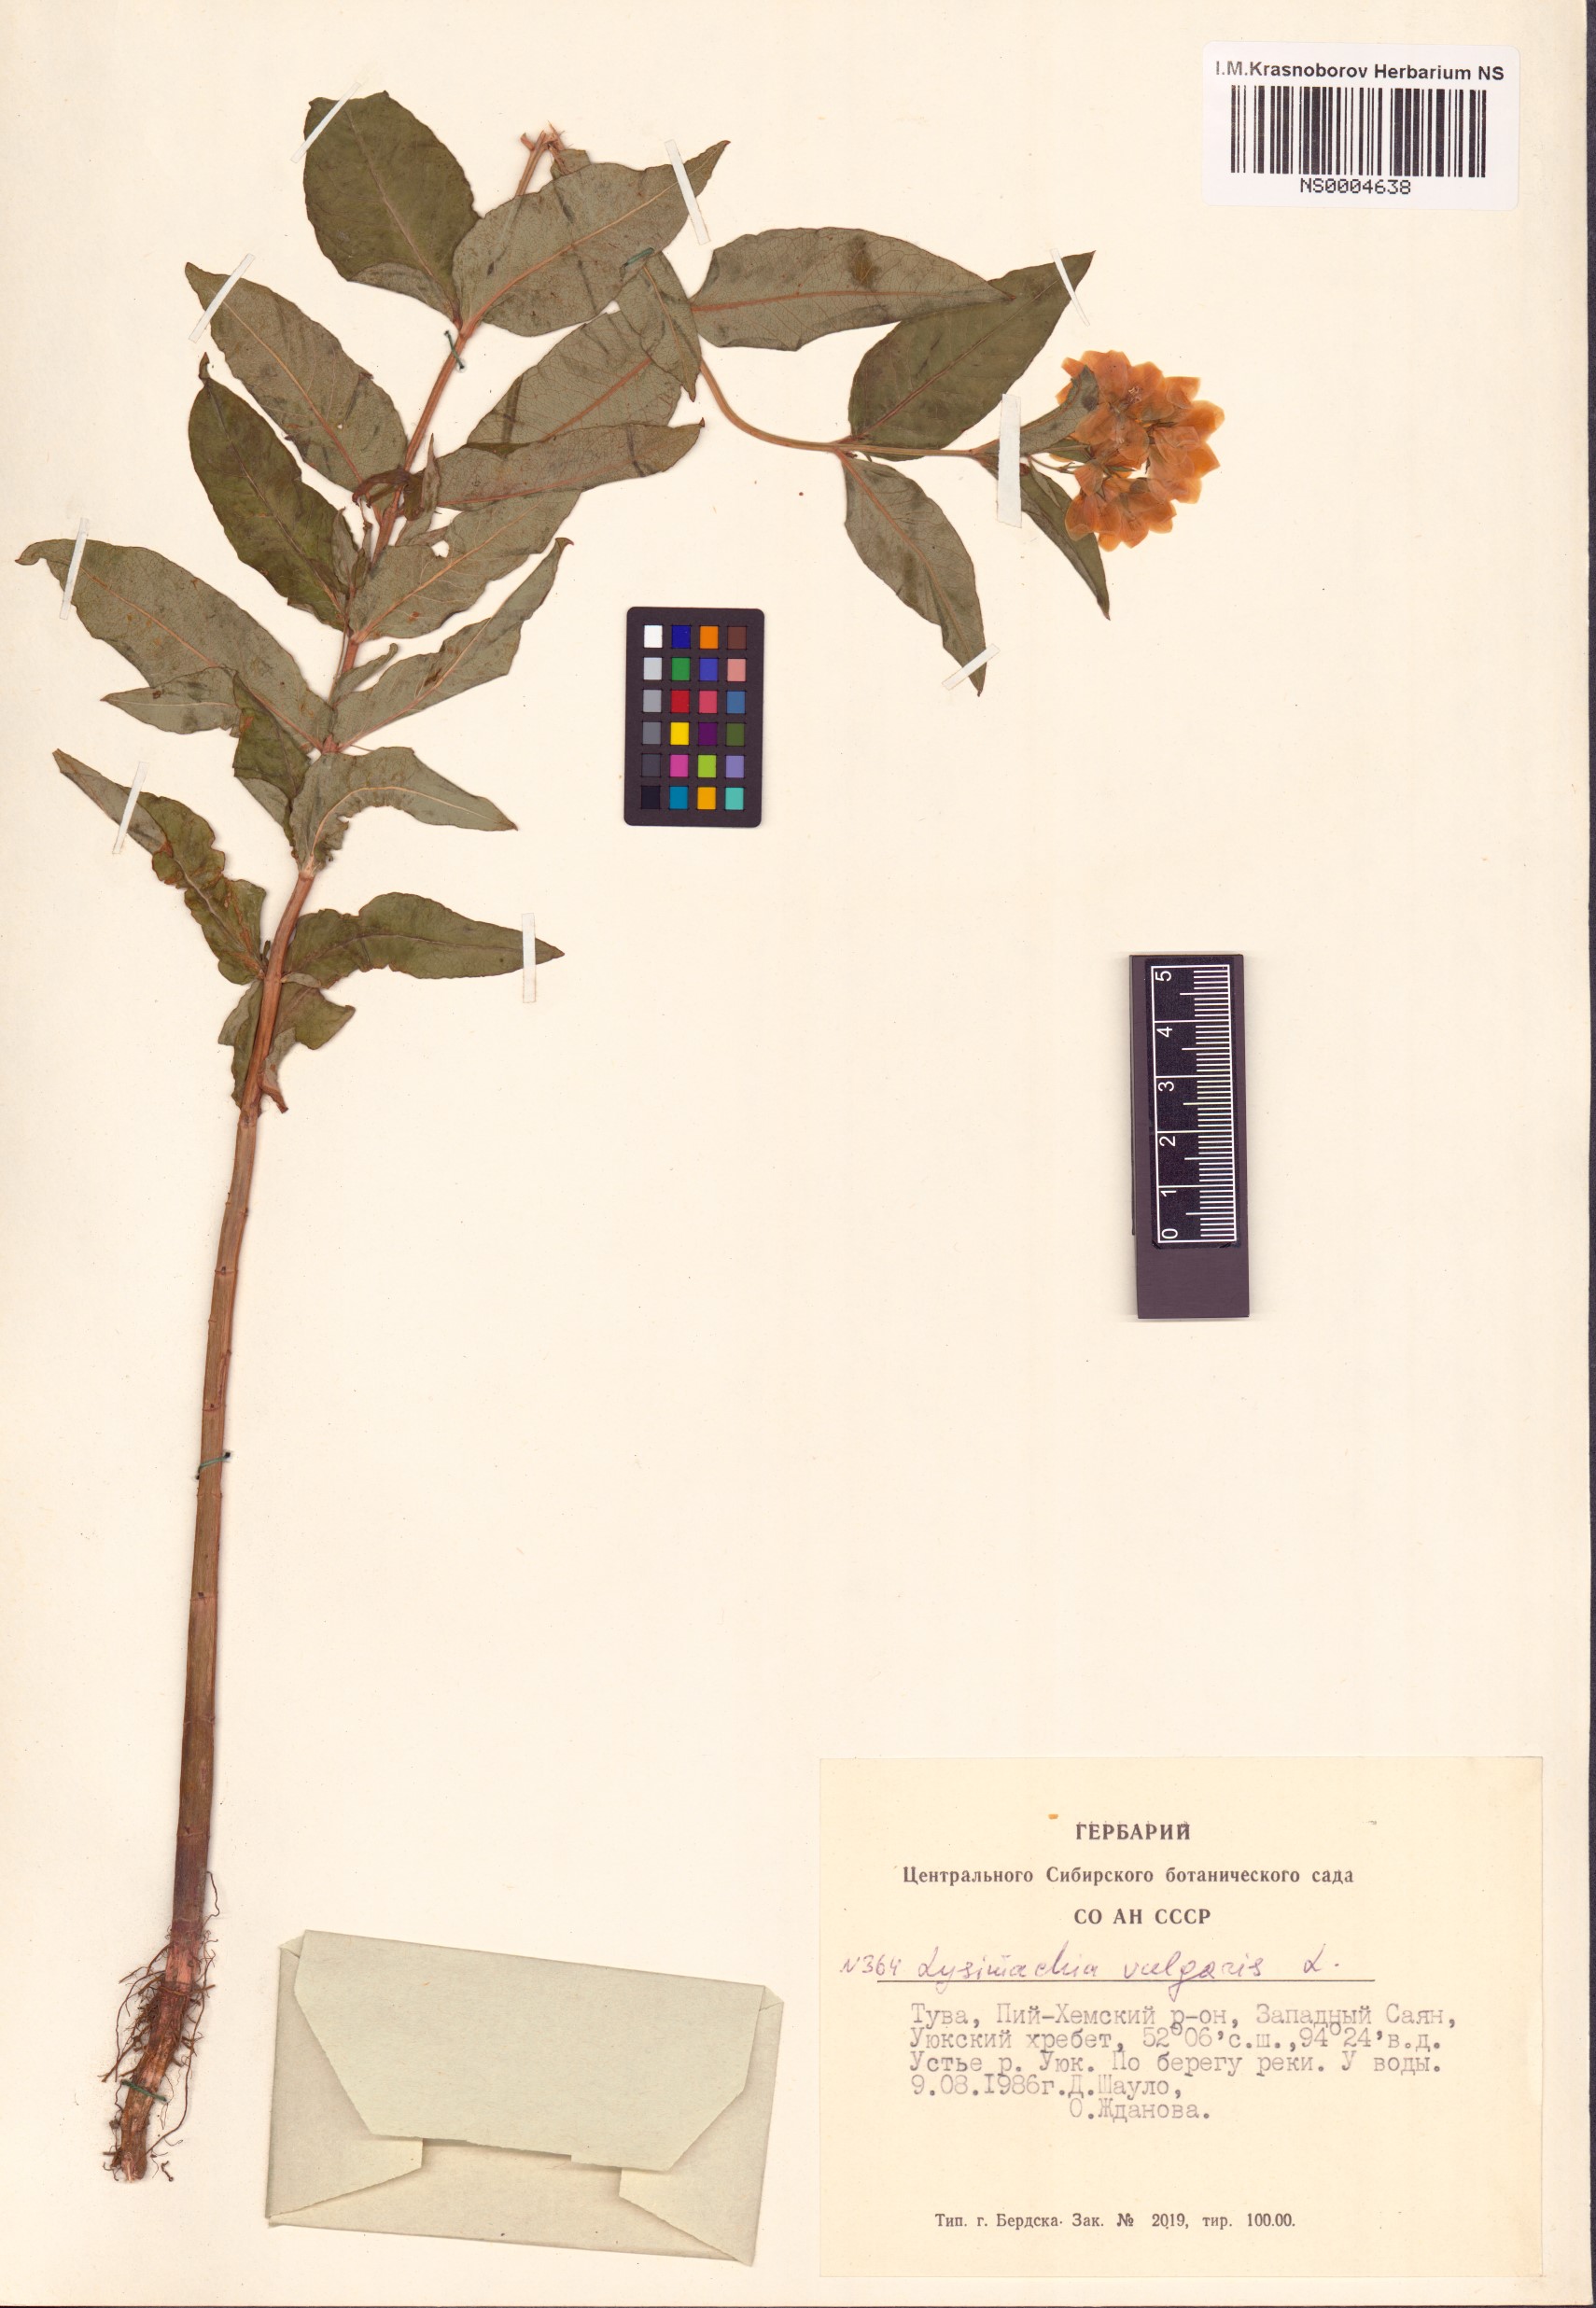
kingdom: Plantae
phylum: Tracheophyta
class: Magnoliopsida
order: Ericales
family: Primulaceae
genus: Lysimachia
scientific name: Lysimachia vulgaris
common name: Yellow loosestrife
